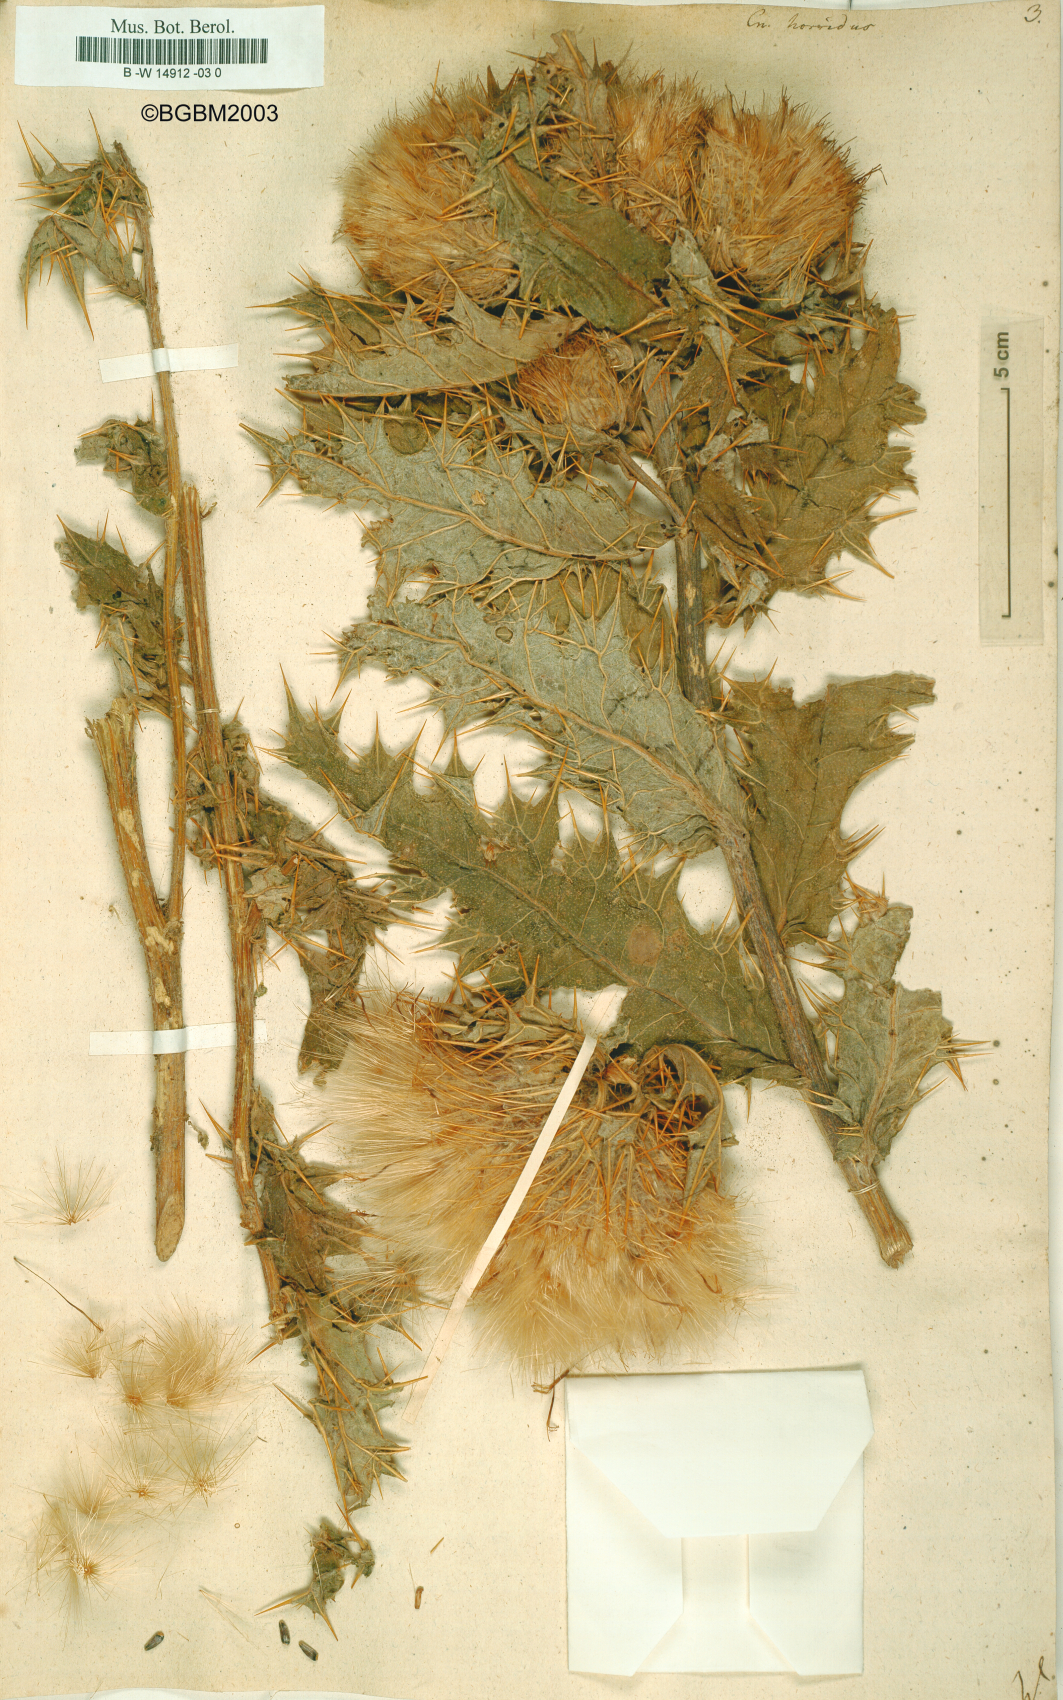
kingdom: Plantae
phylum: Tracheophyta
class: Magnoliopsida
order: Asterales
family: Asteraceae
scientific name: Asteraceae
